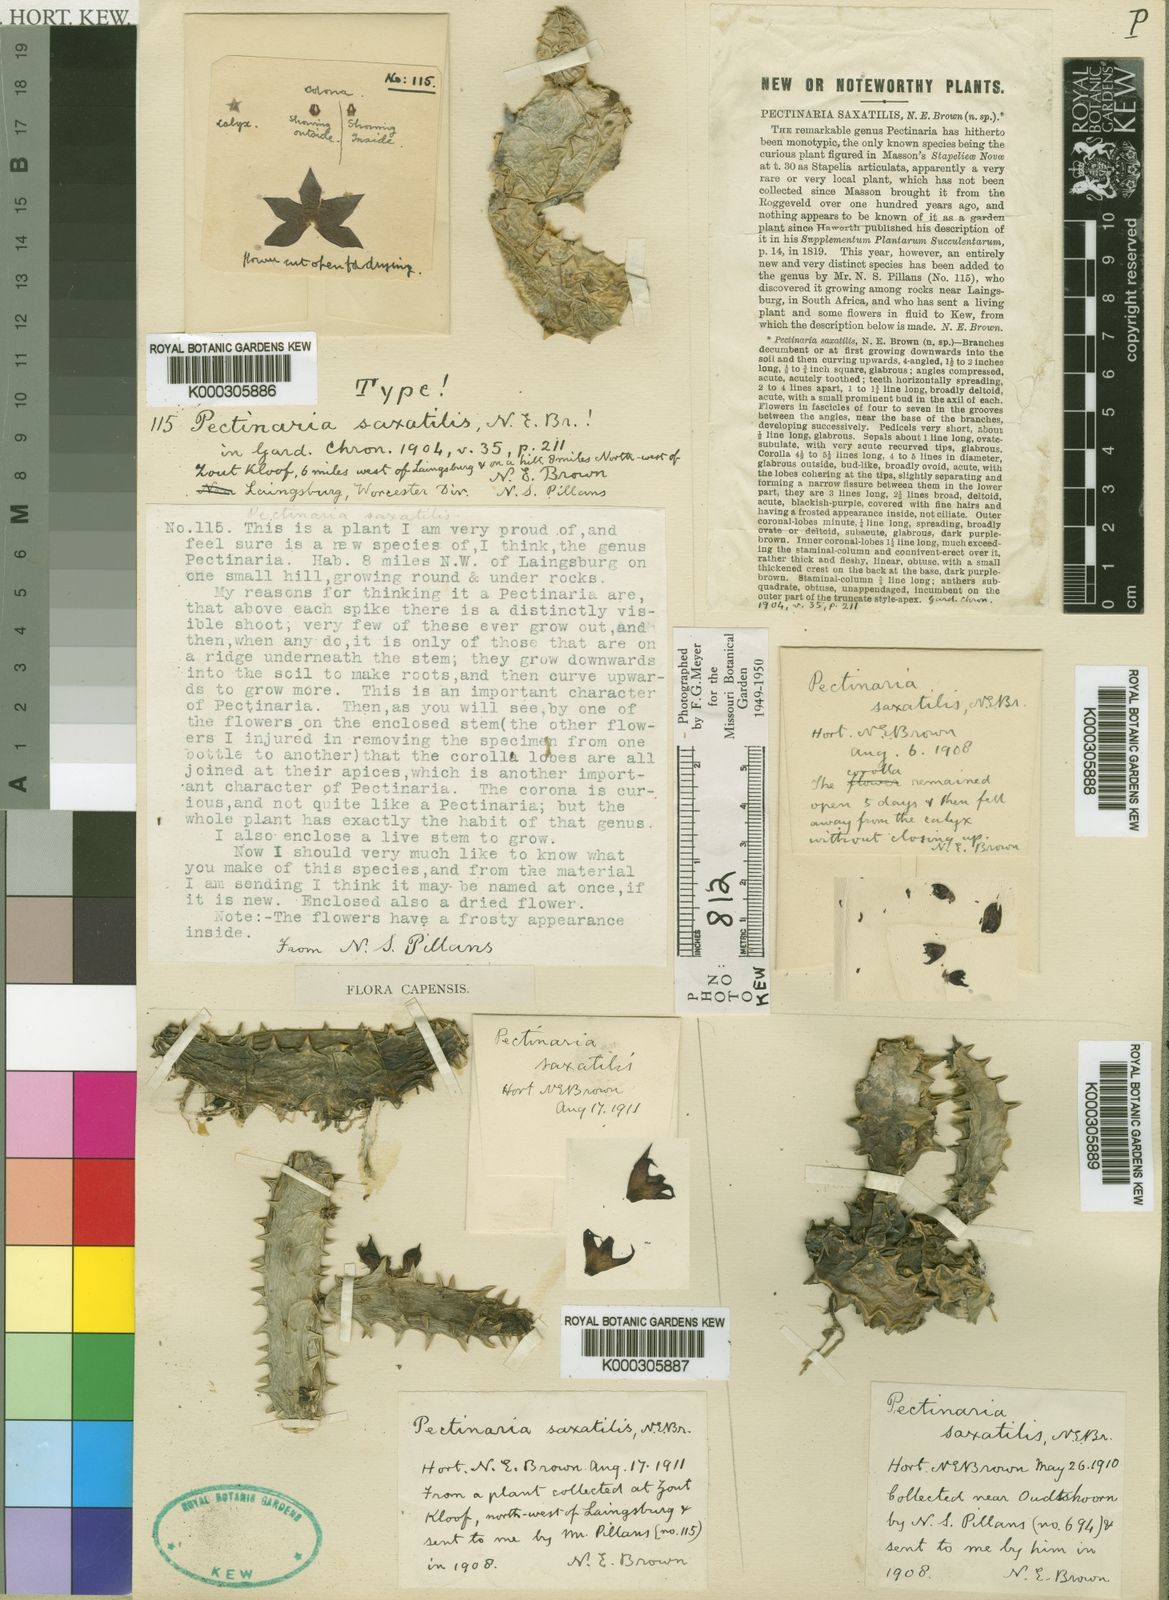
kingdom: Plantae
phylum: Tracheophyta
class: Magnoliopsida
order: Gentianales
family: Apocynaceae
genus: Ceropegia
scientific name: Ceropegia tulipiflora
